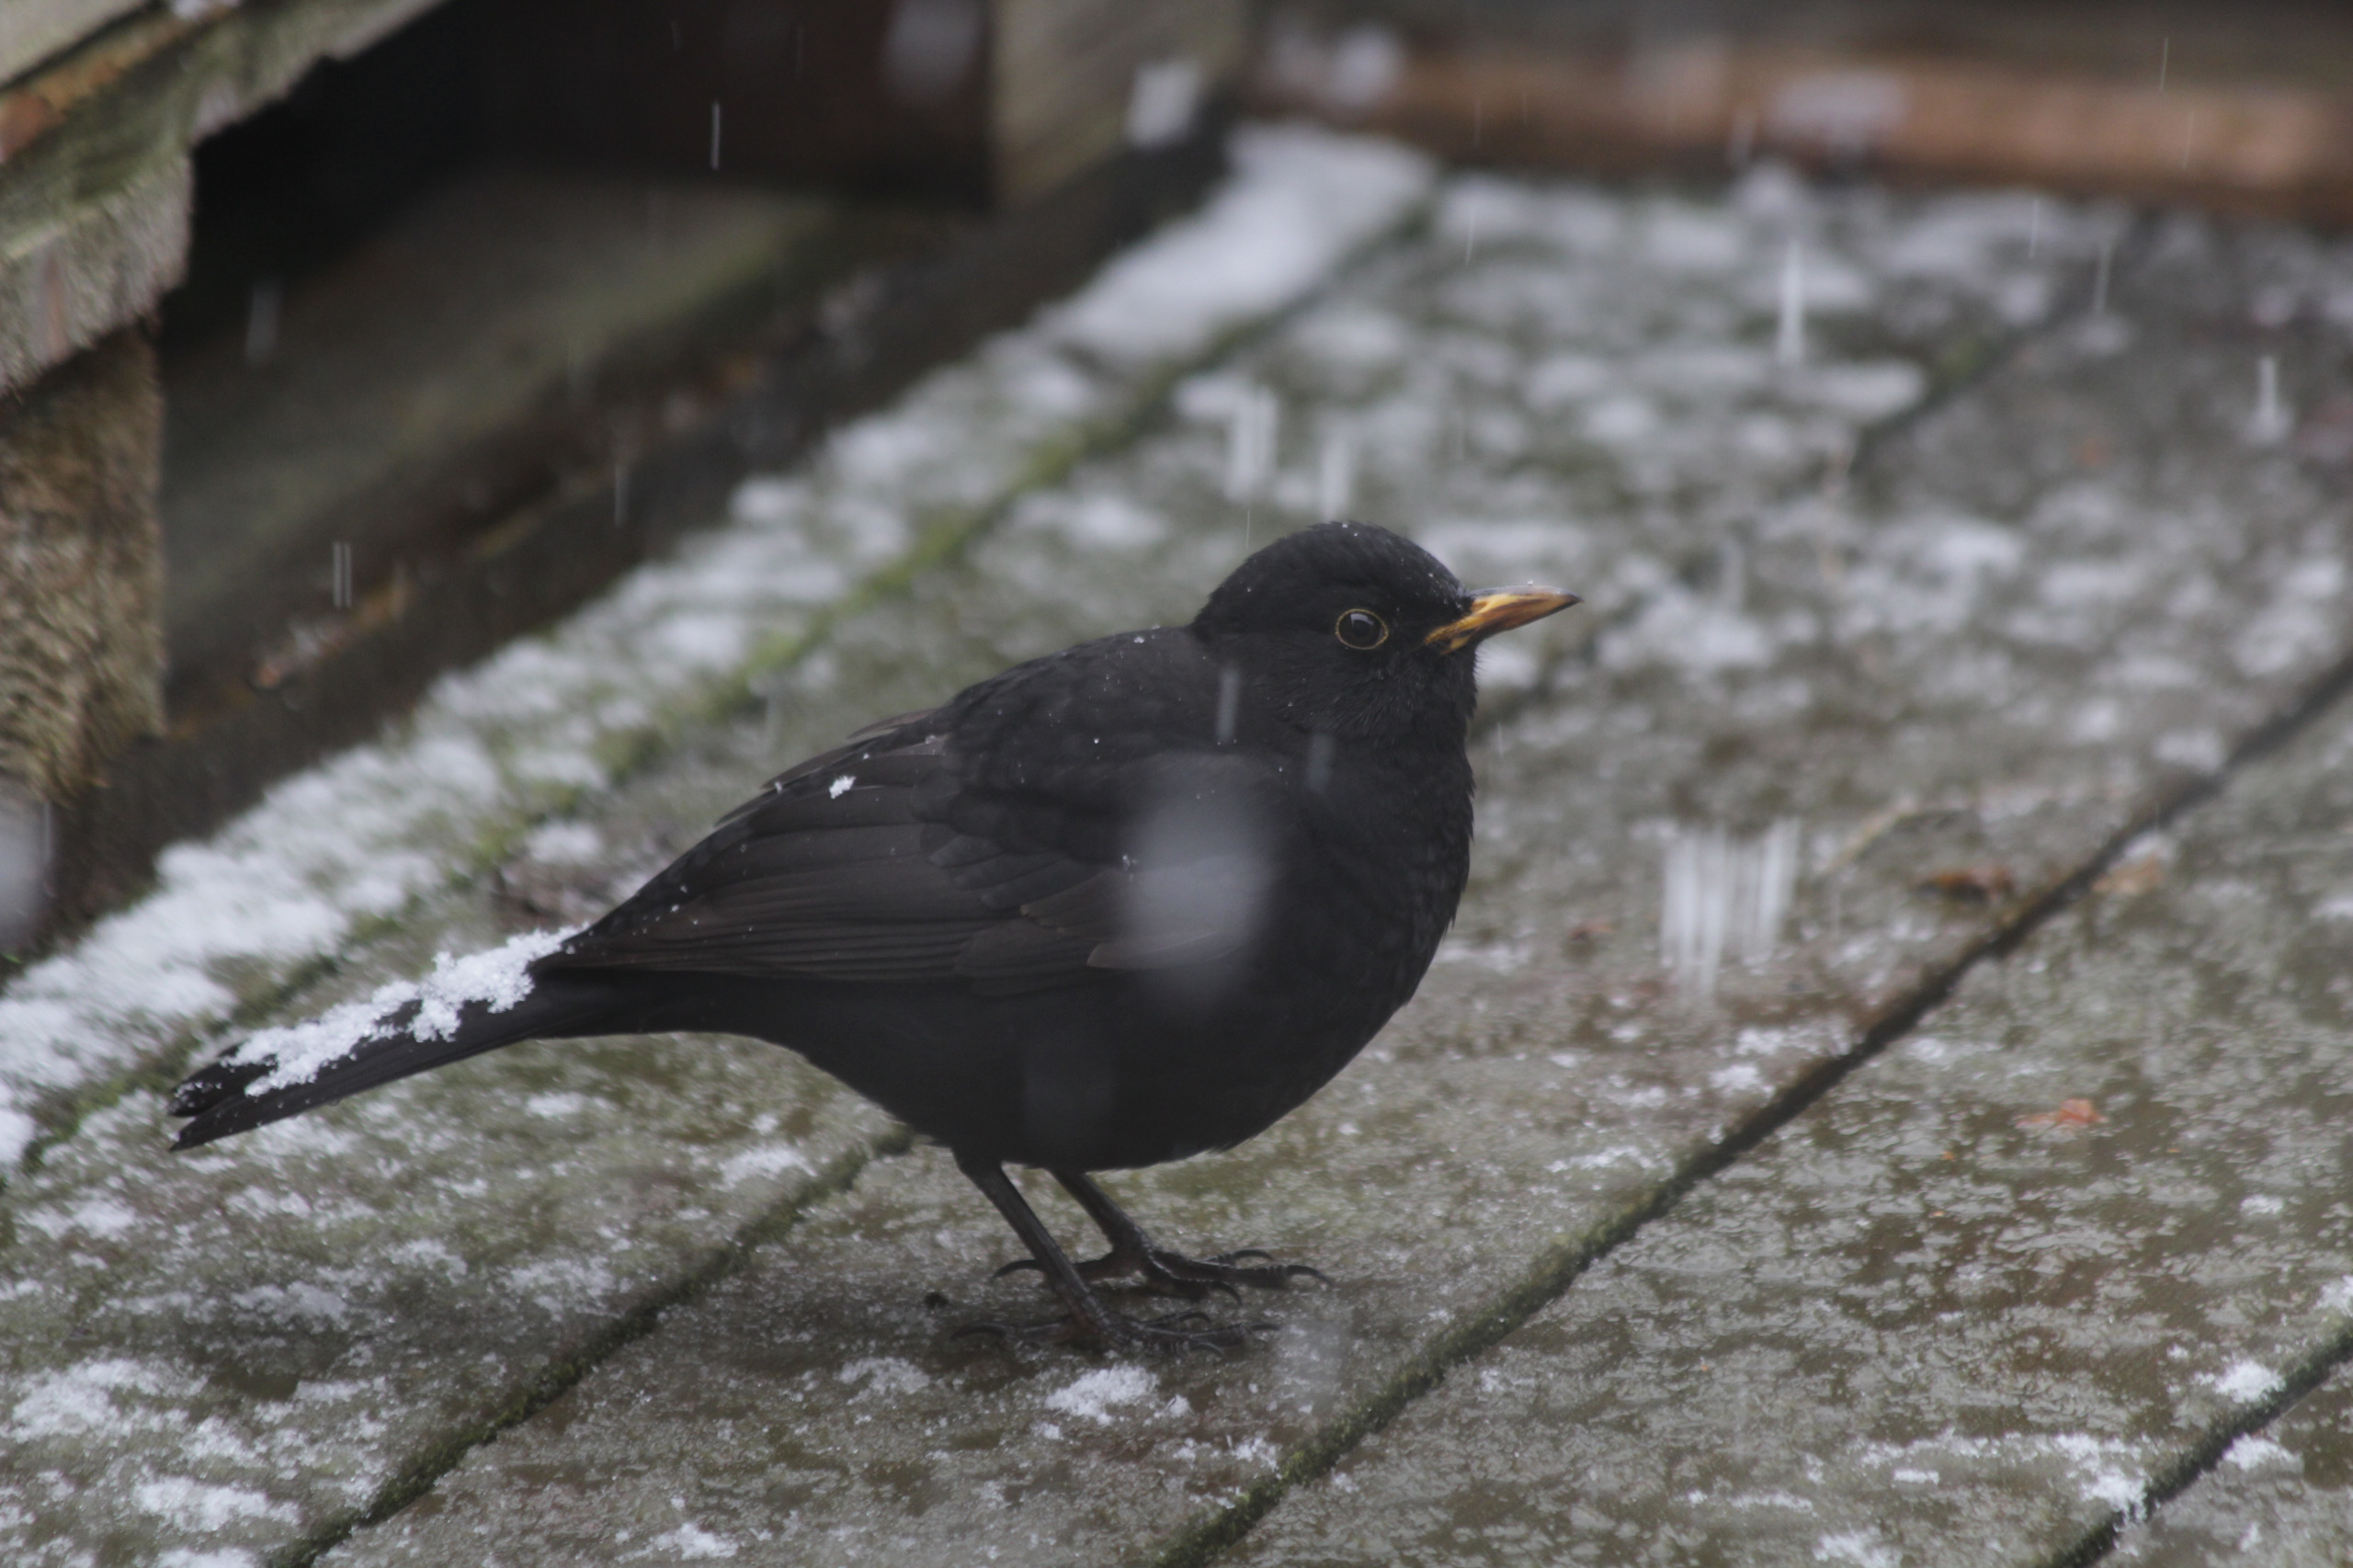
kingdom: Animalia
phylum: Chordata
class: Aves
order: Passeriformes
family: Turdidae
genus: Turdus
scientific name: Turdus merula
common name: Solsort
